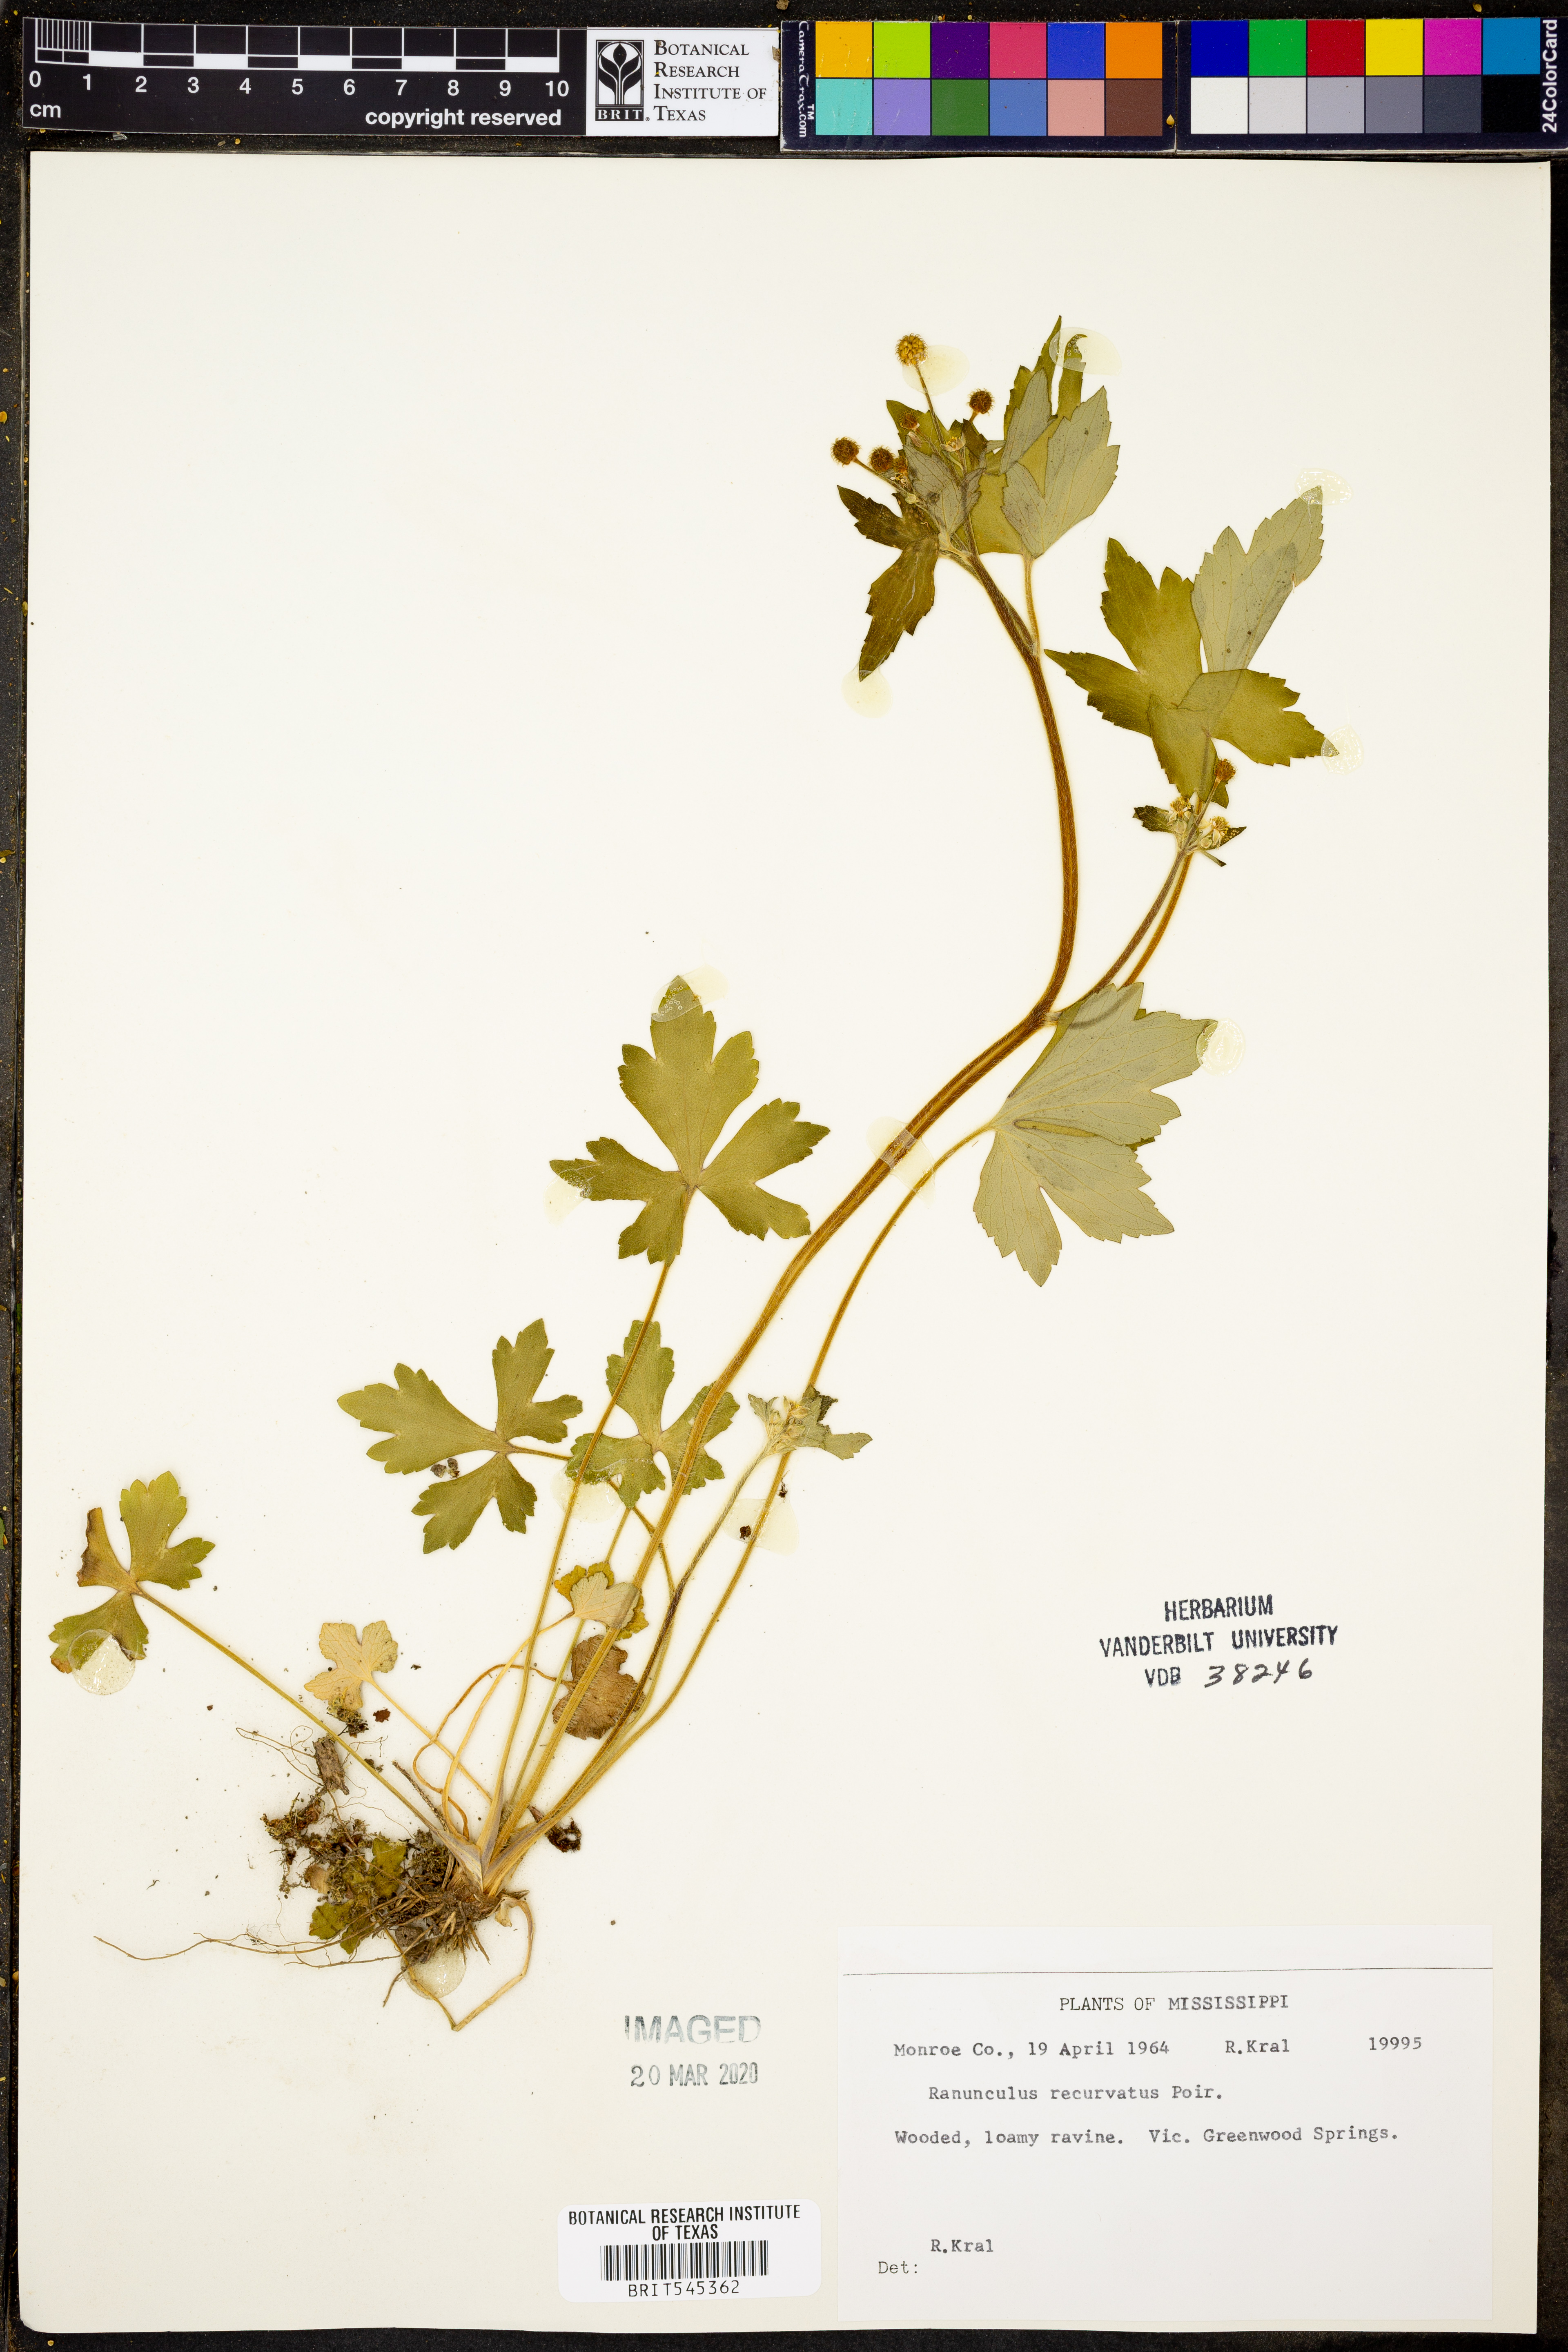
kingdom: Plantae
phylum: Tracheophyta
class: Magnoliopsida
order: Ranunculales
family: Ranunculaceae
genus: Ranunculus
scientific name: Ranunculus recurvatus
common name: Blisterwort
